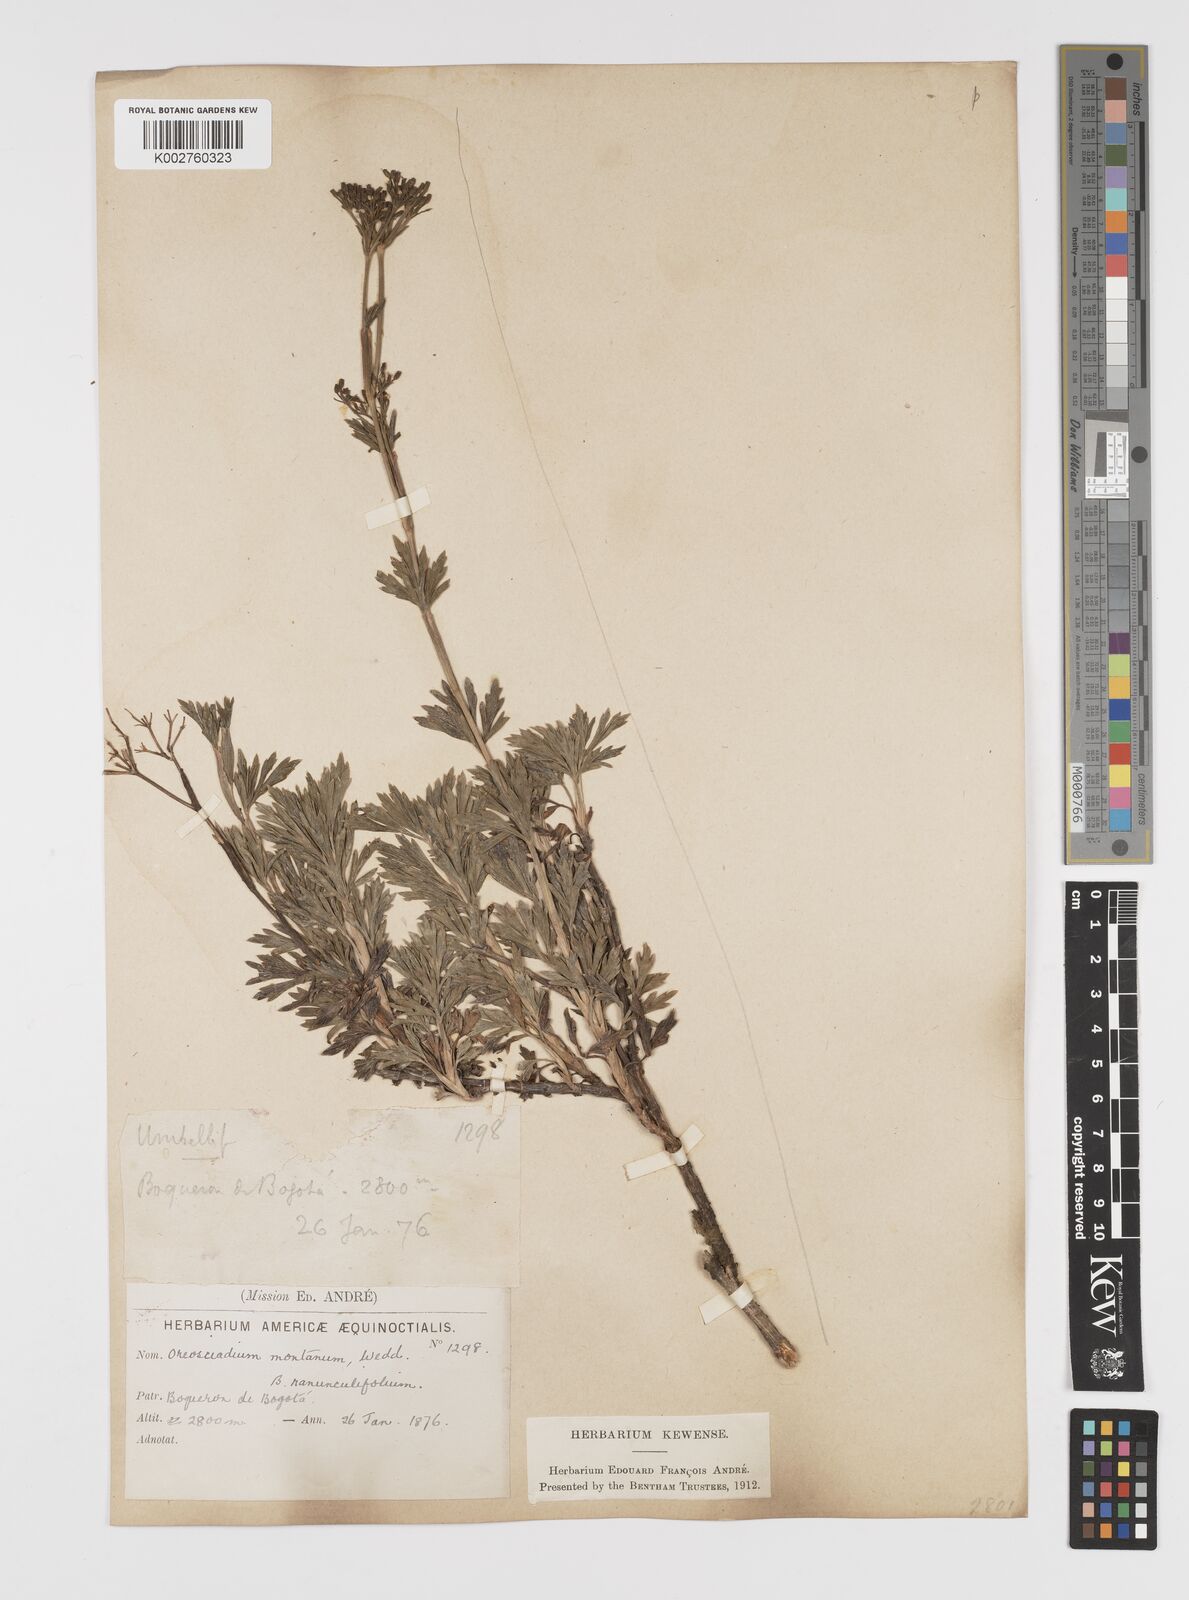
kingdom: Plantae
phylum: Tracheophyta
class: Magnoliopsida
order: Apiales
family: Apiaceae
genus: Niphogeton
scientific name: Niphogeton ternata
